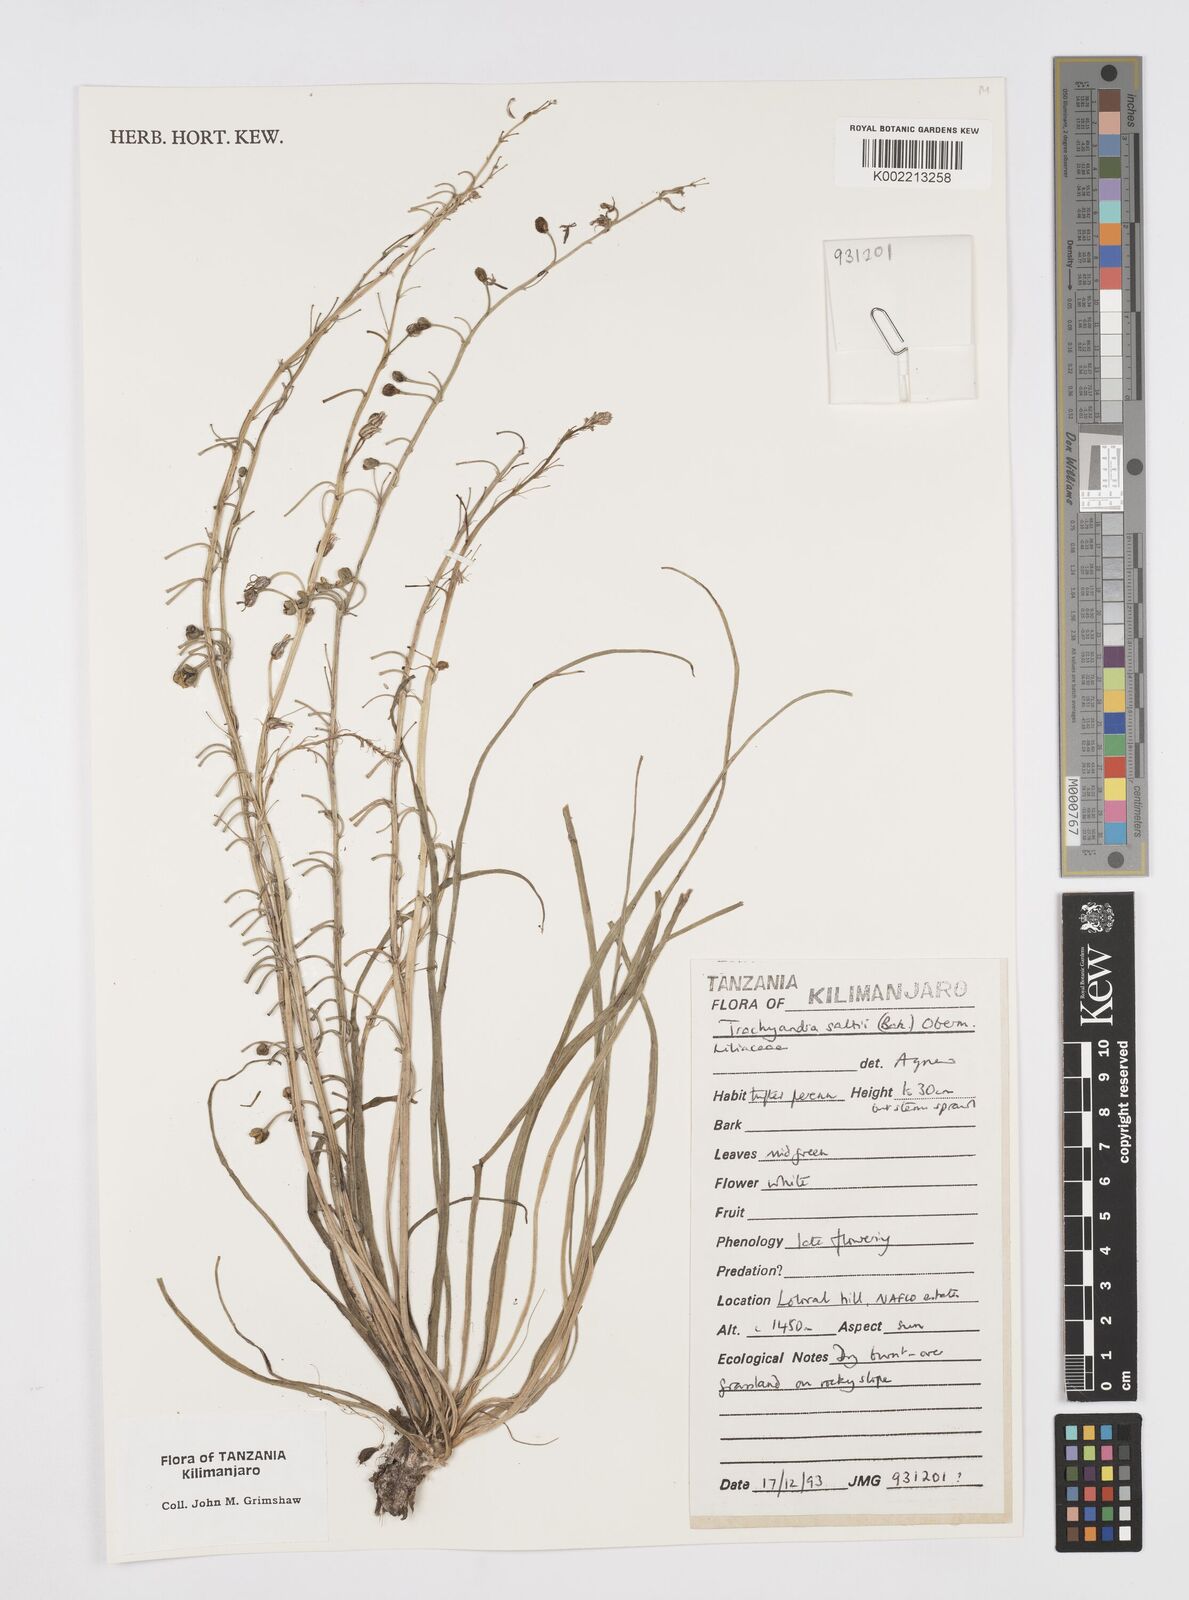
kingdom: Plantae
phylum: Tracheophyta
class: Liliopsida
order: Asparagales
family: Asphodelaceae
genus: Trachyandra
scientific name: Trachyandra saltii
